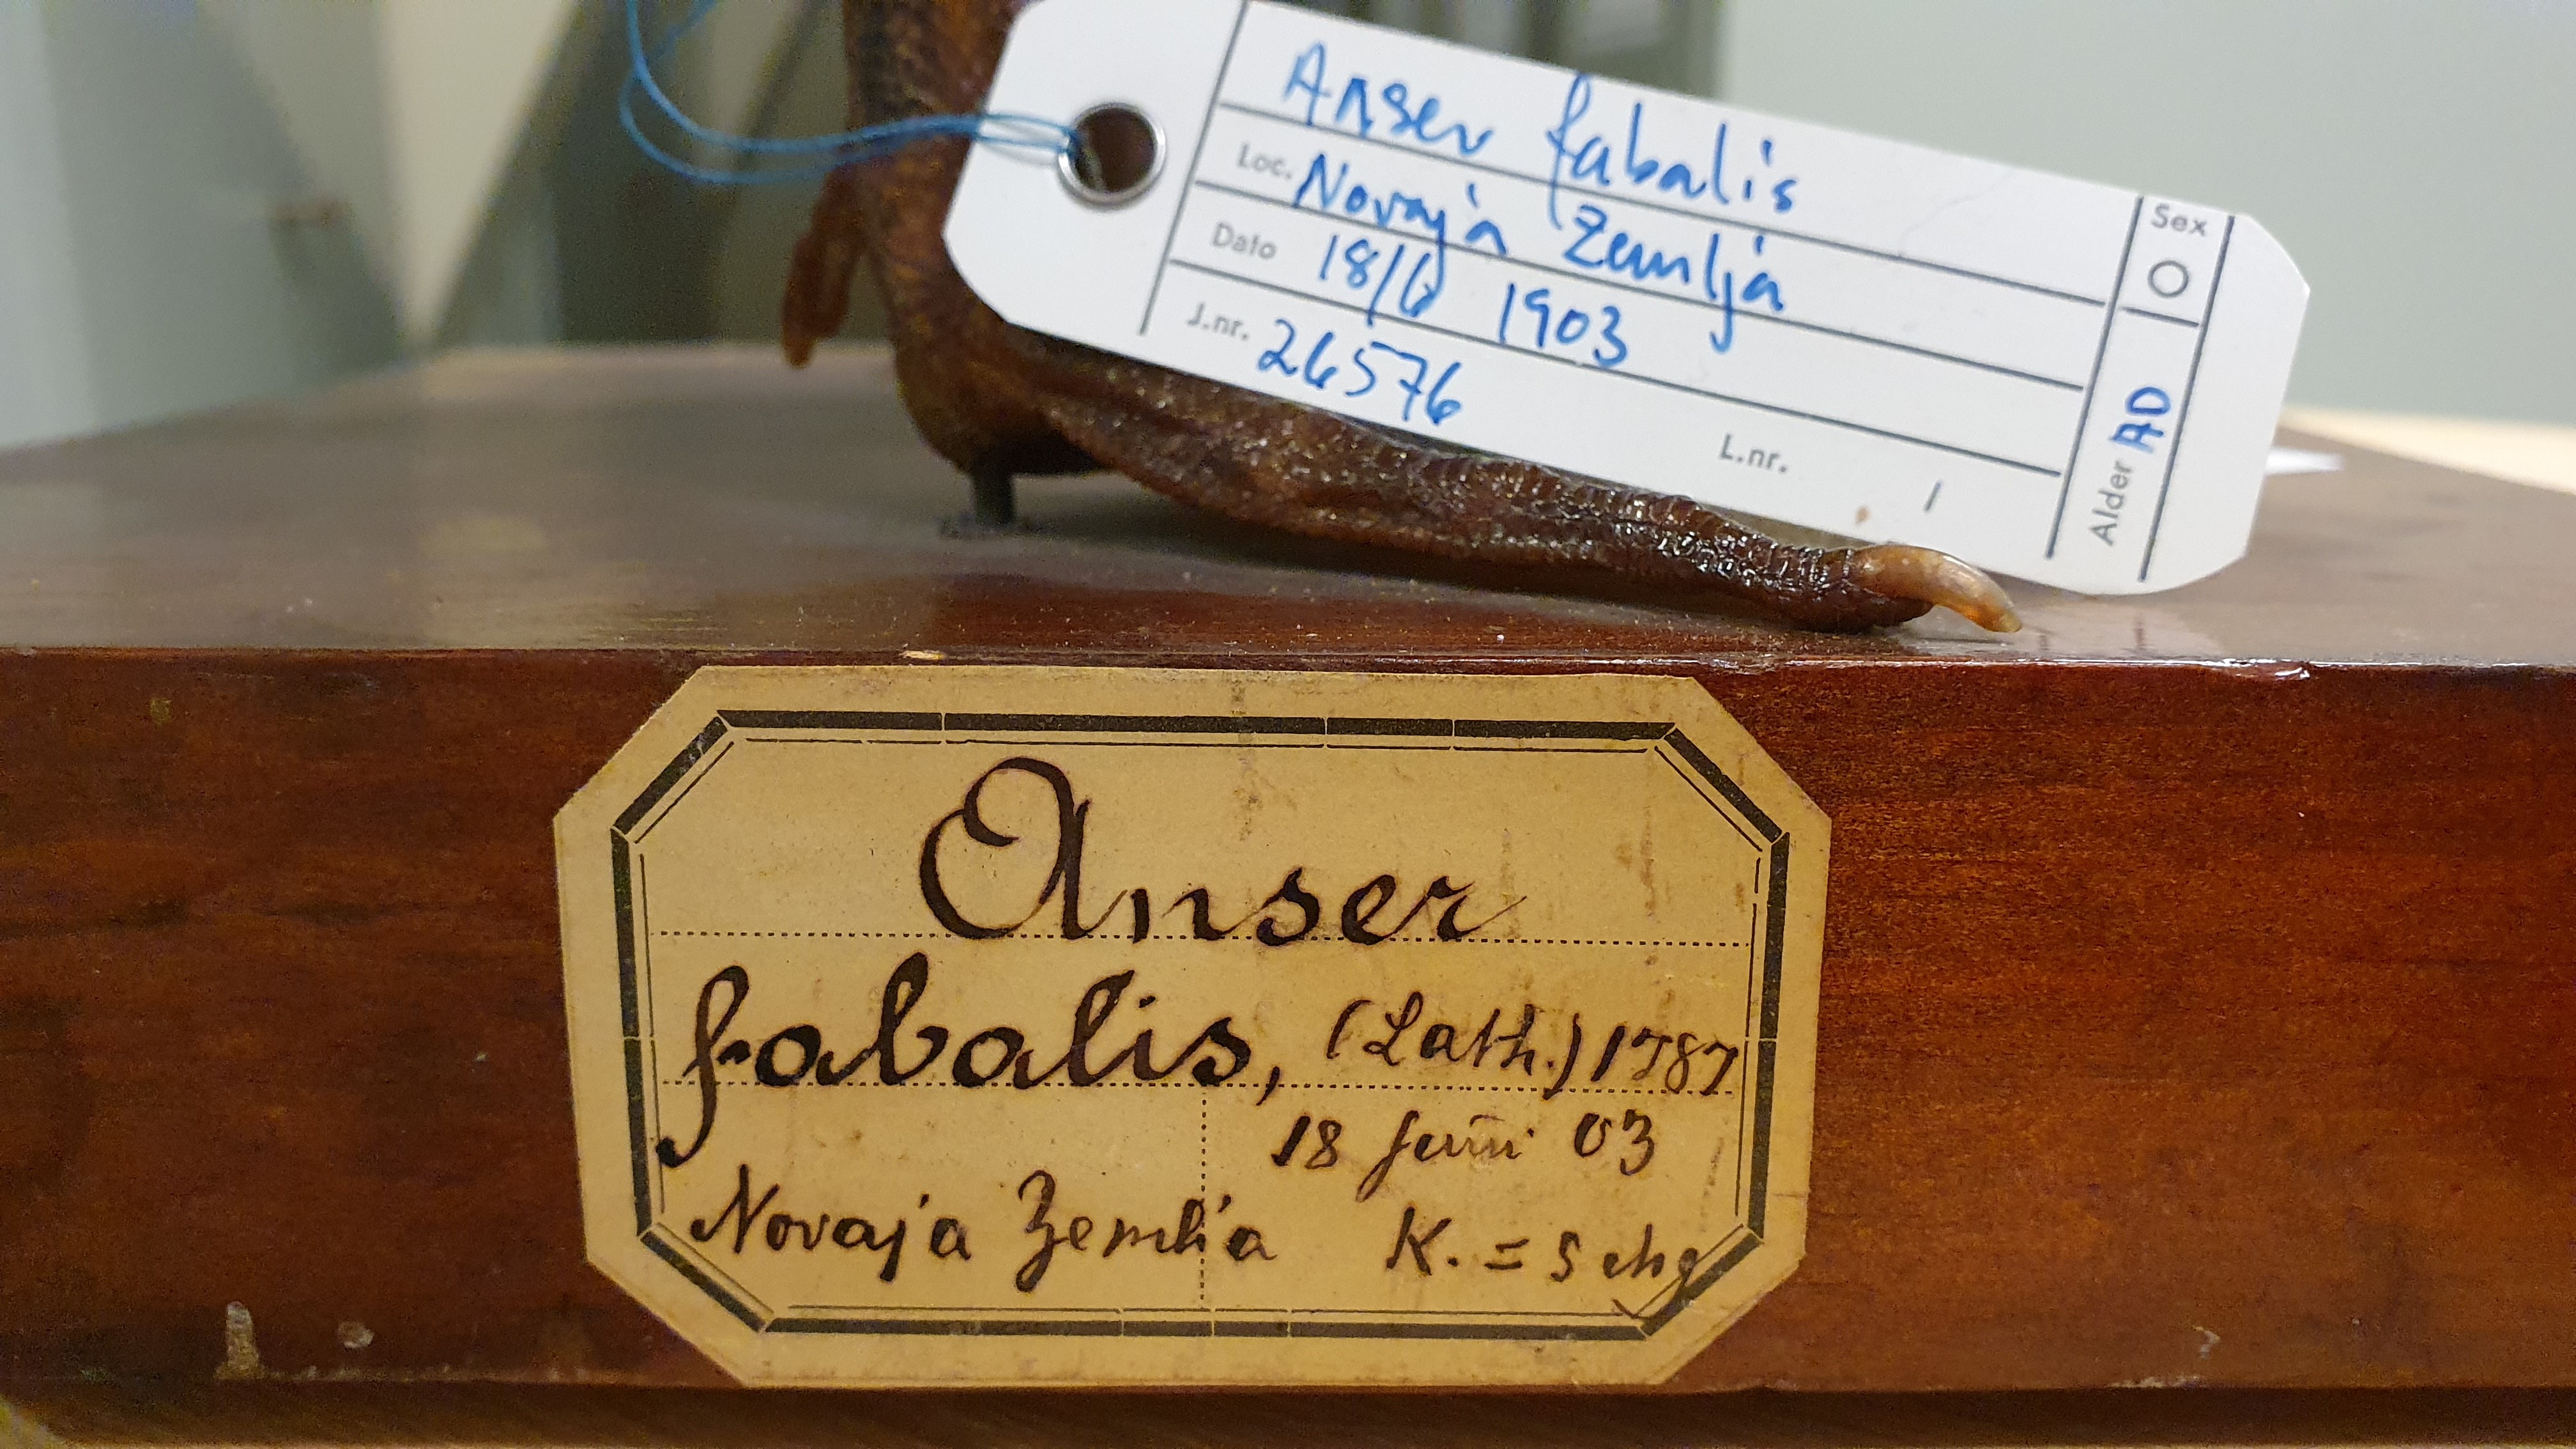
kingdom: Animalia
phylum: Chordata
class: Aves
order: Anseriformes
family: Anatidae
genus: Anser
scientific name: Anser serrirostris
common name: Tundra bean goose
